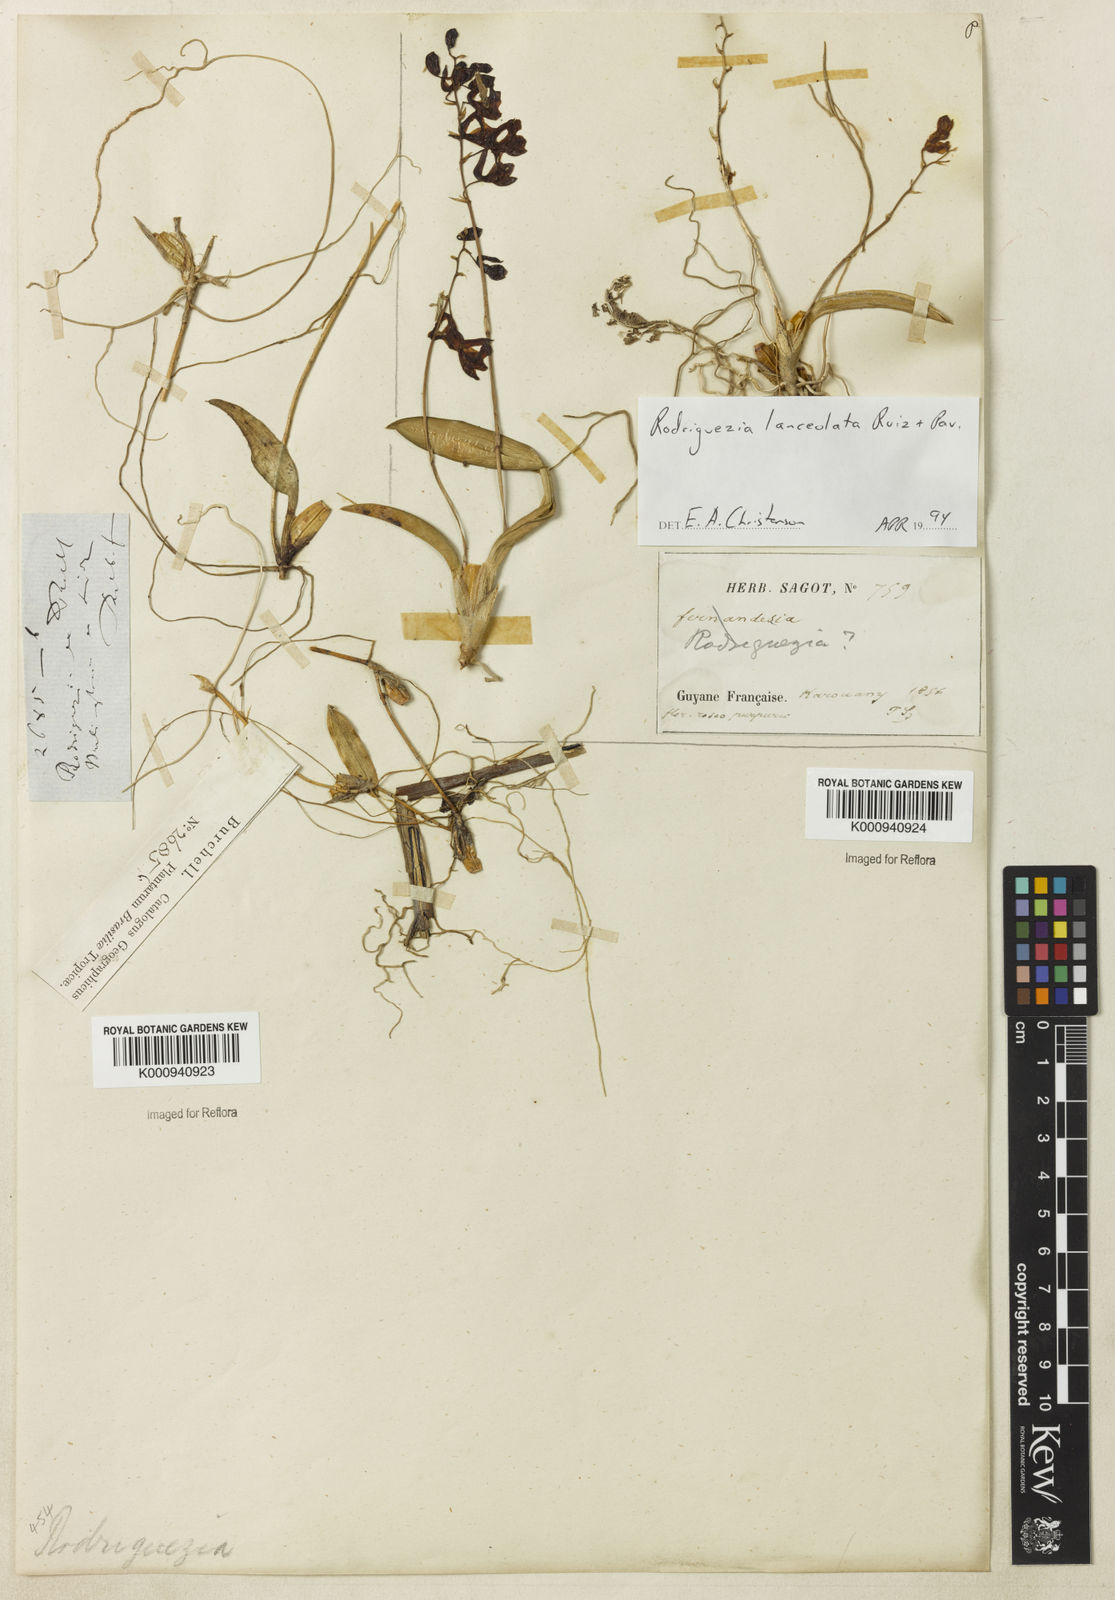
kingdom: Plantae
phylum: Tracheophyta
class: Liliopsida
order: Asparagales
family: Orchidaceae
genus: Rodriguezia
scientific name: Rodriguezia lanceolata
